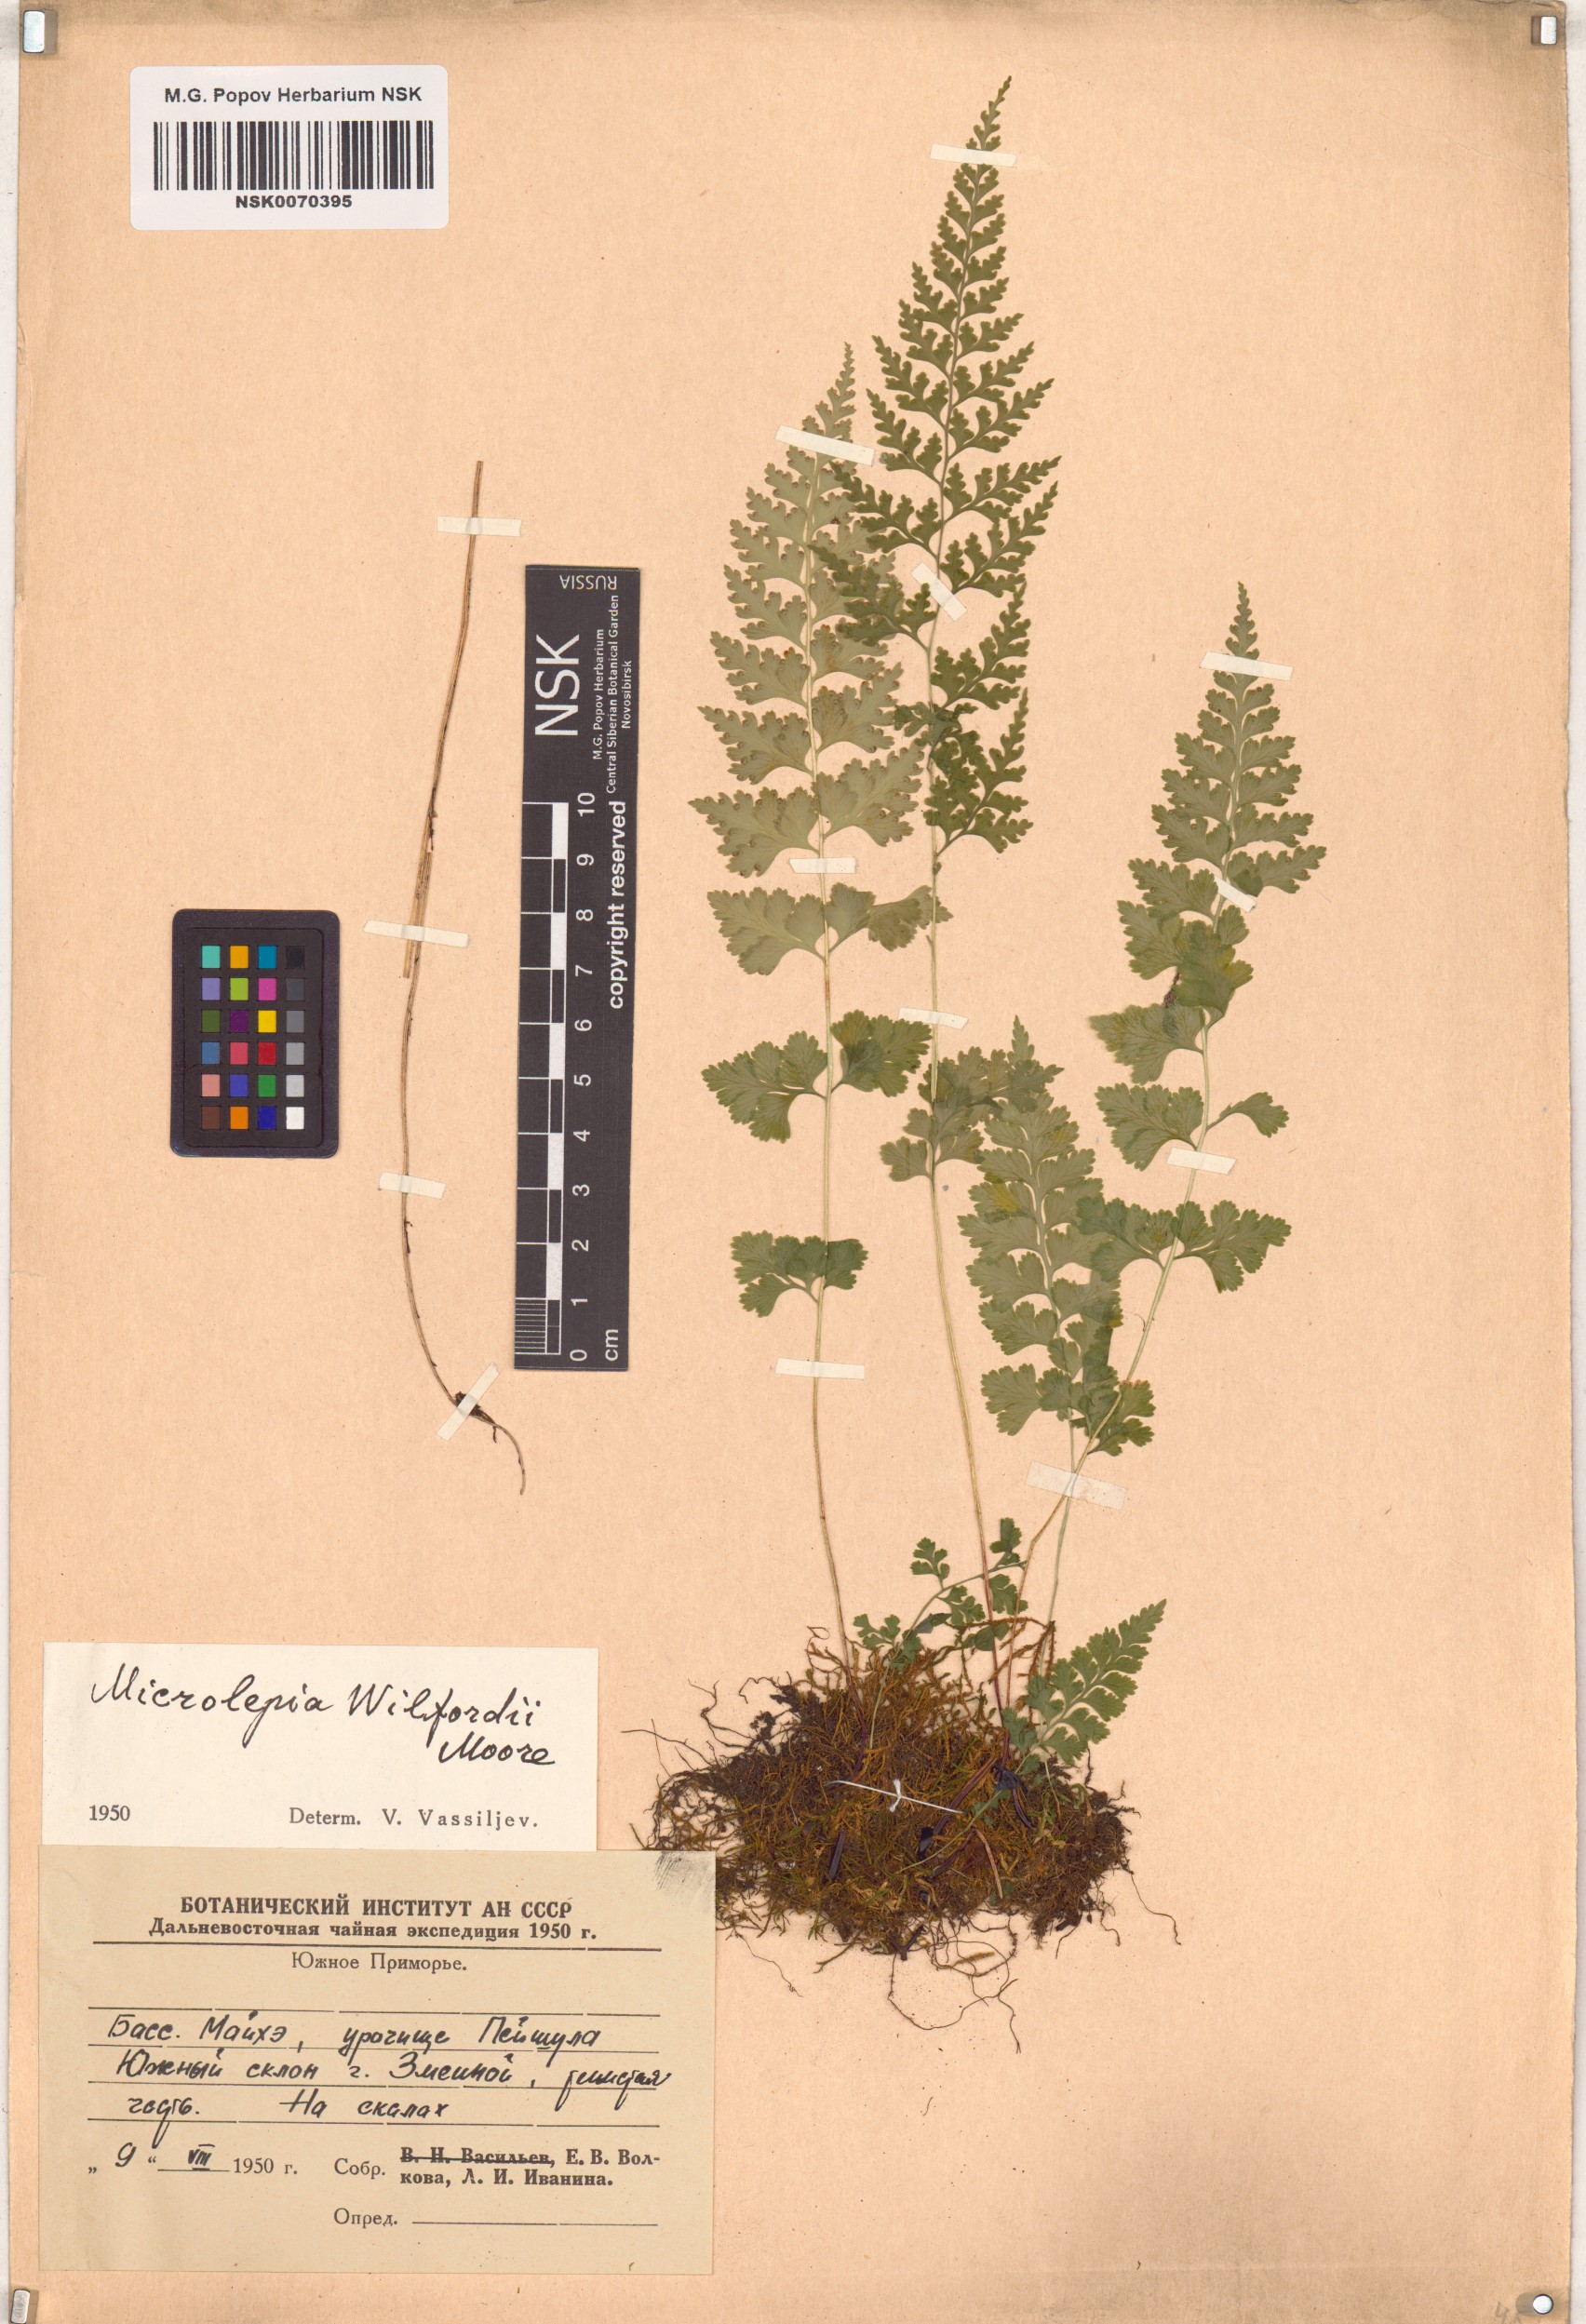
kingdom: Plantae
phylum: Tracheophyta
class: Polypodiopsida
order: Polypodiales
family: Dennstaedtiaceae
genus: Sitobolium
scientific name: Sitobolium wilfordii
